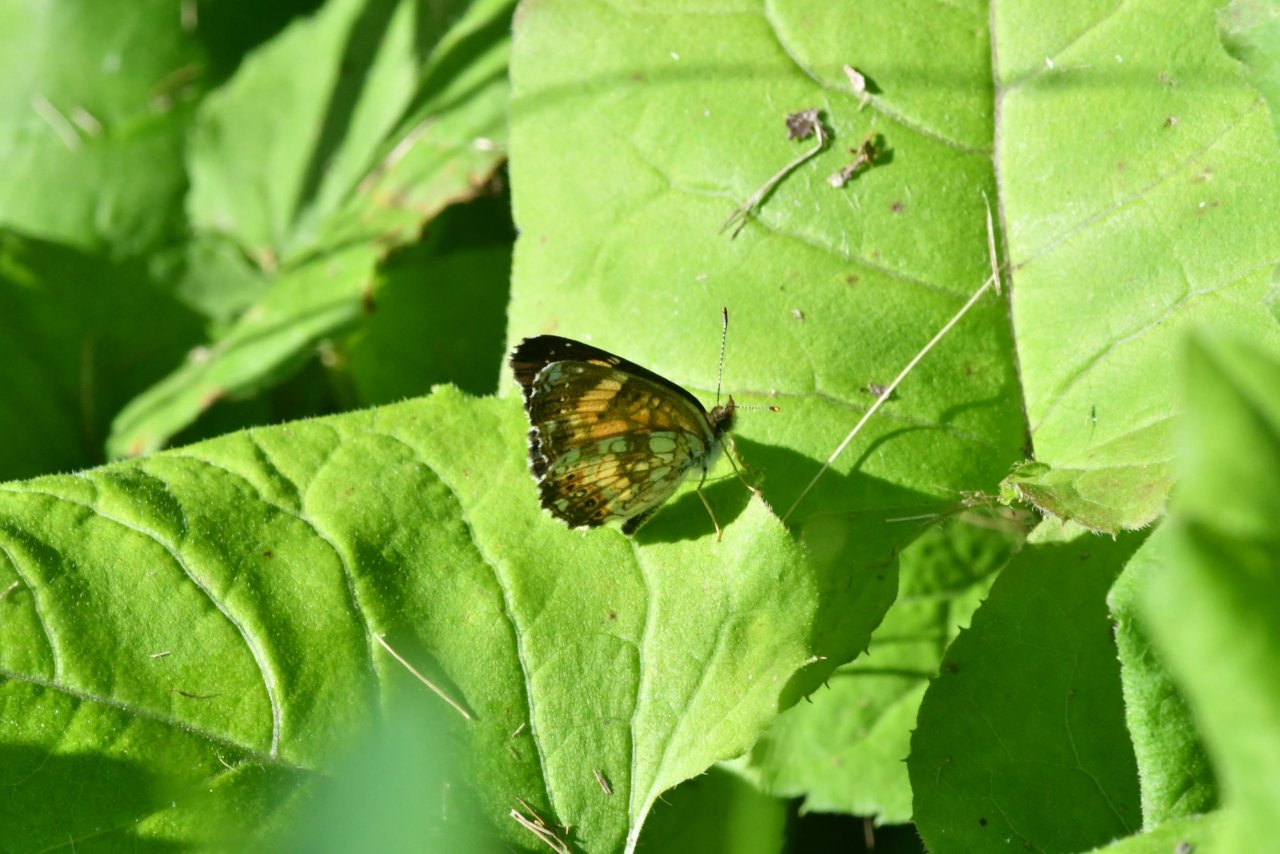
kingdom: Animalia
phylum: Arthropoda
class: Insecta
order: Lepidoptera
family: Nymphalidae
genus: Chlosyne
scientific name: Chlosyne nycteis
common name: Silvery Checkerspot
